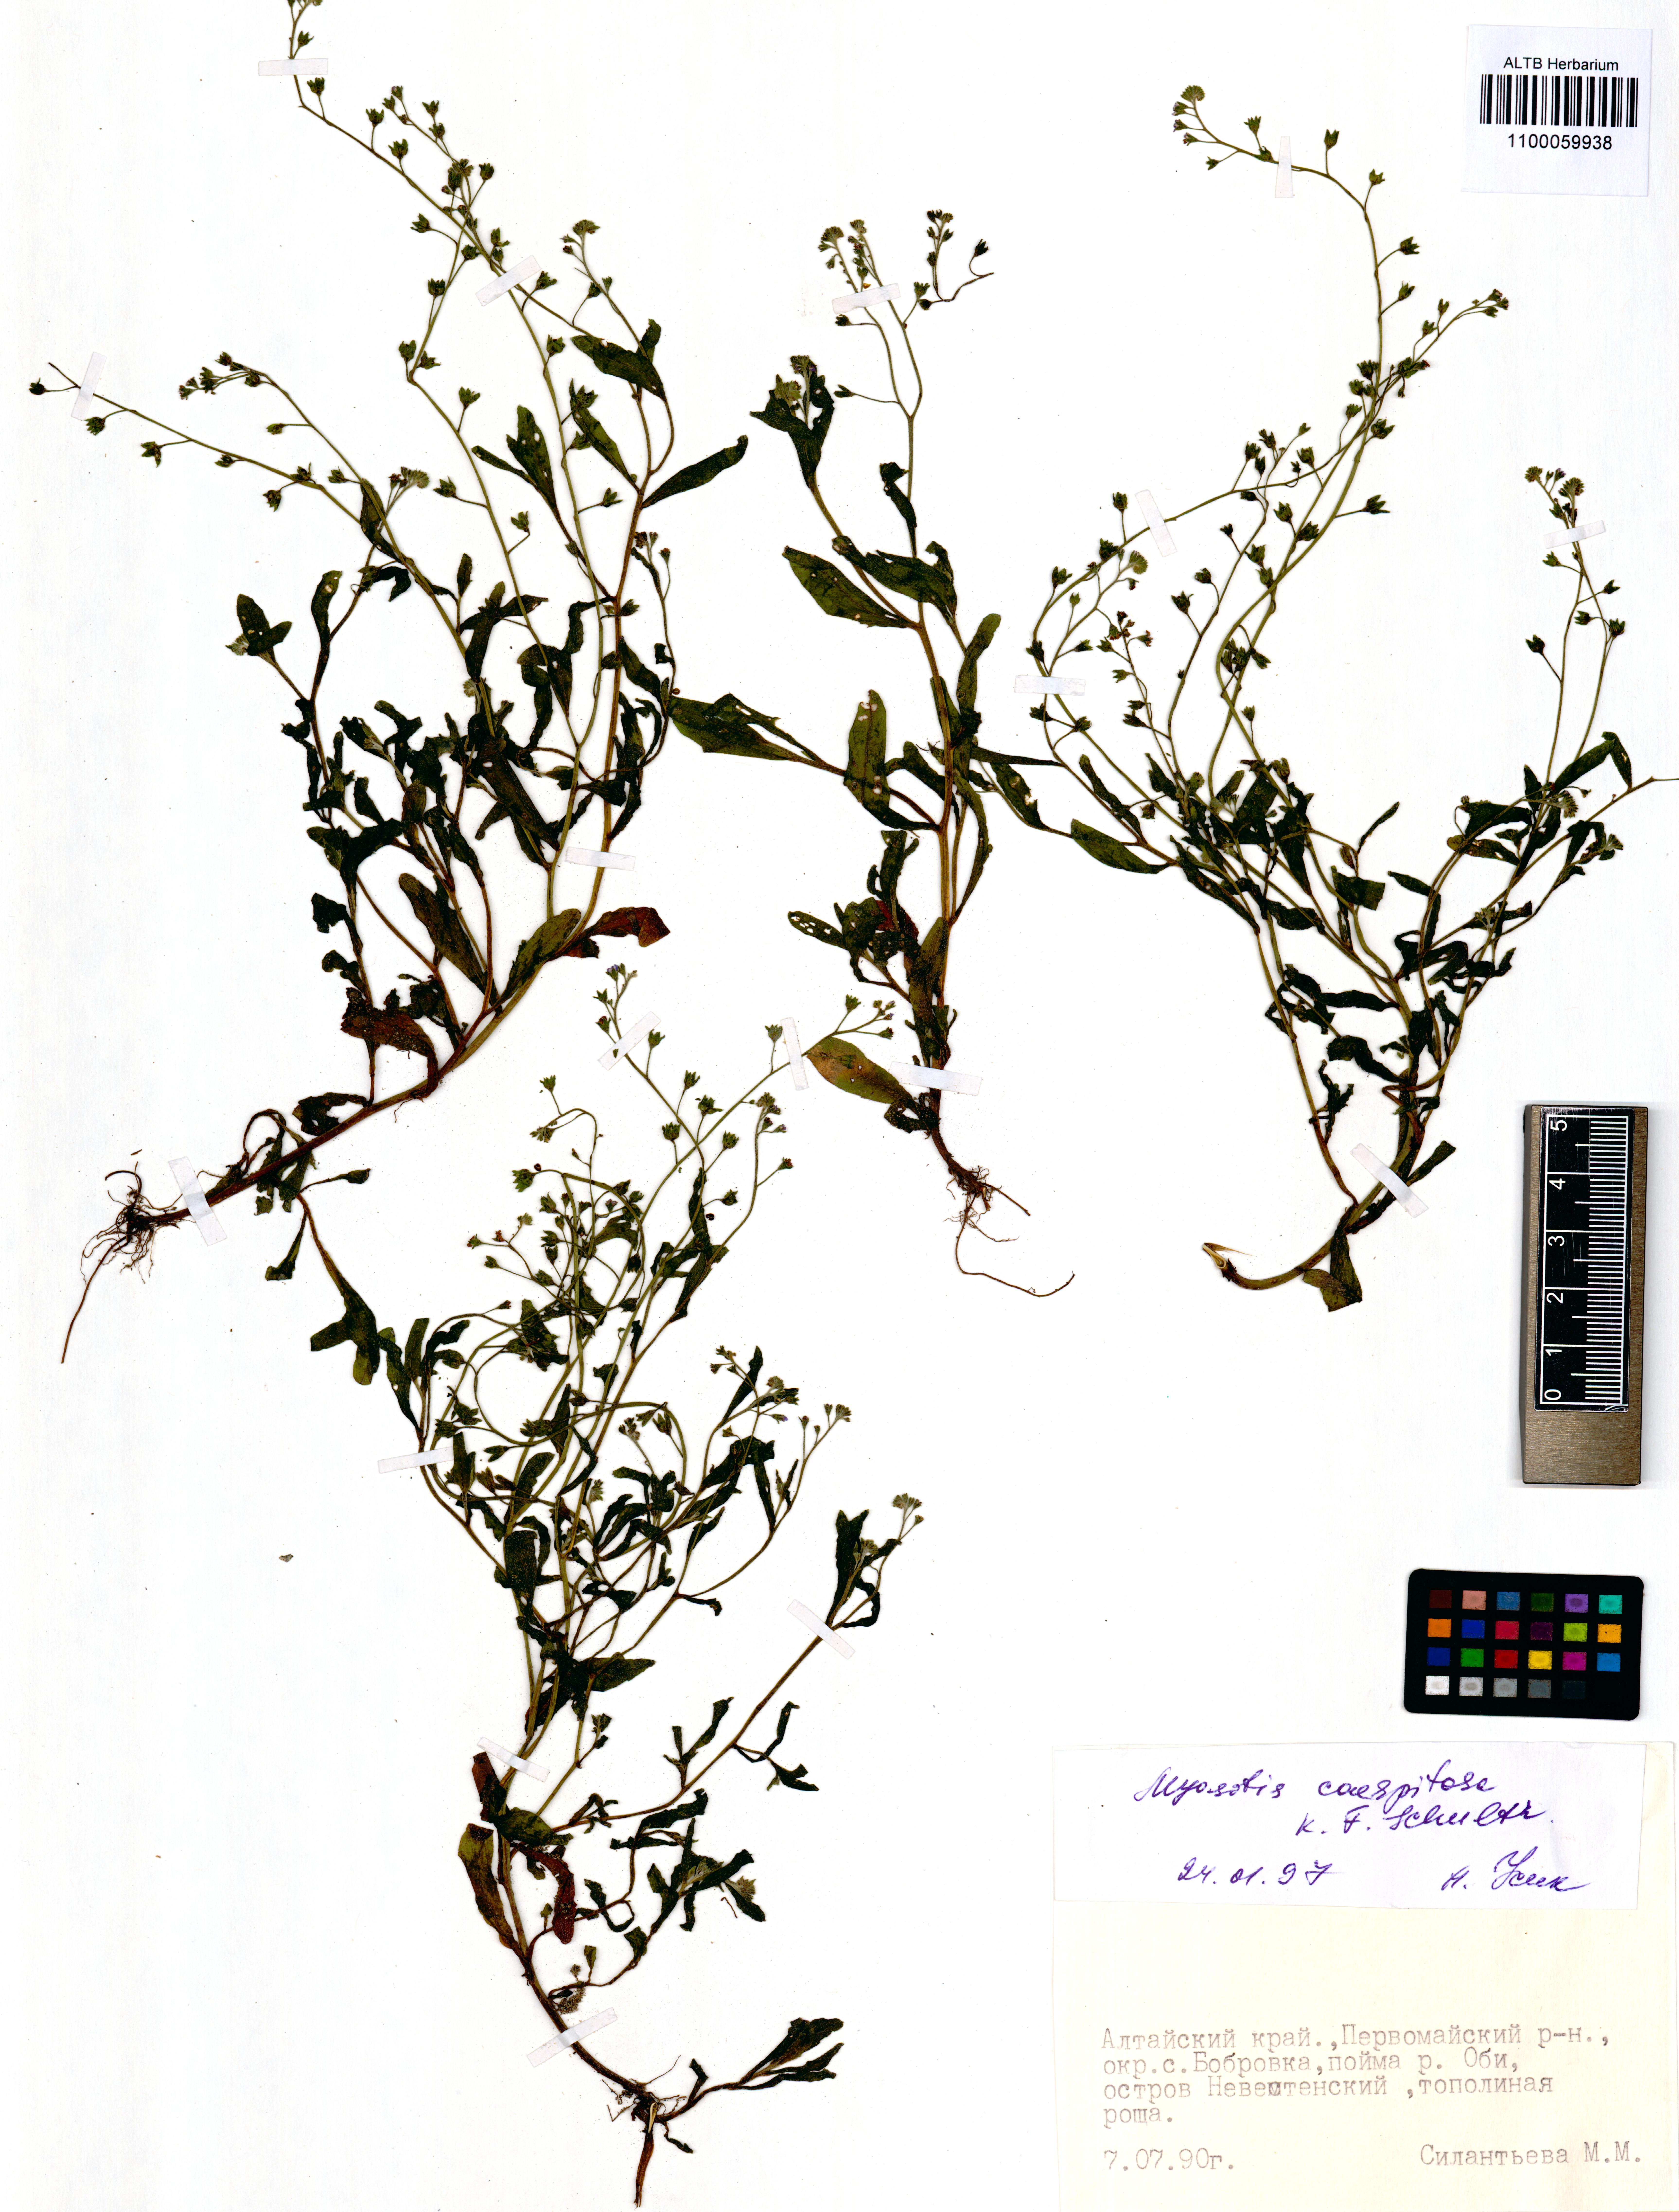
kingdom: Plantae
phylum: Tracheophyta
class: Magnoliopsida
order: Boraginales
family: Boraginaceae
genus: Myosotis
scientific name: Myosotis laxa
